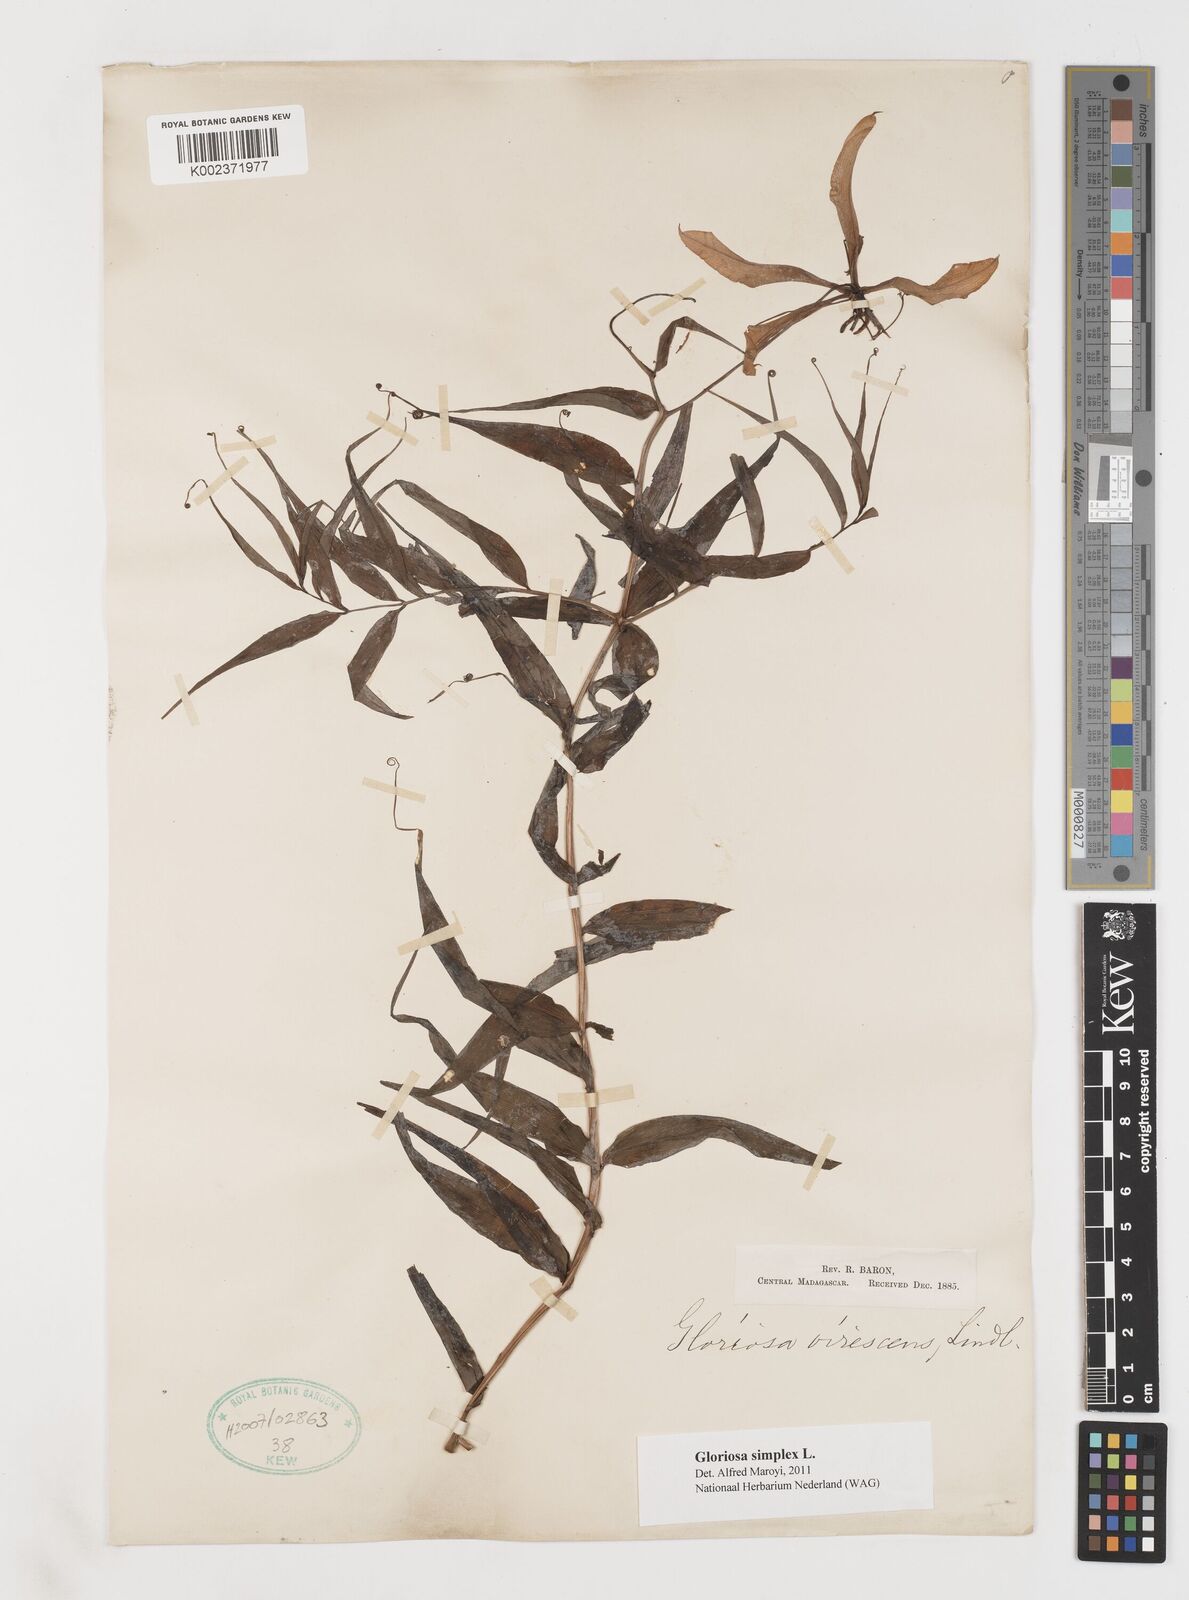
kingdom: Plantae
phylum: Tracheophyta
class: Liliopsida
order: Liliales
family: Colchicaceae
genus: Gloriosa
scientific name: Gloriosa simplex
